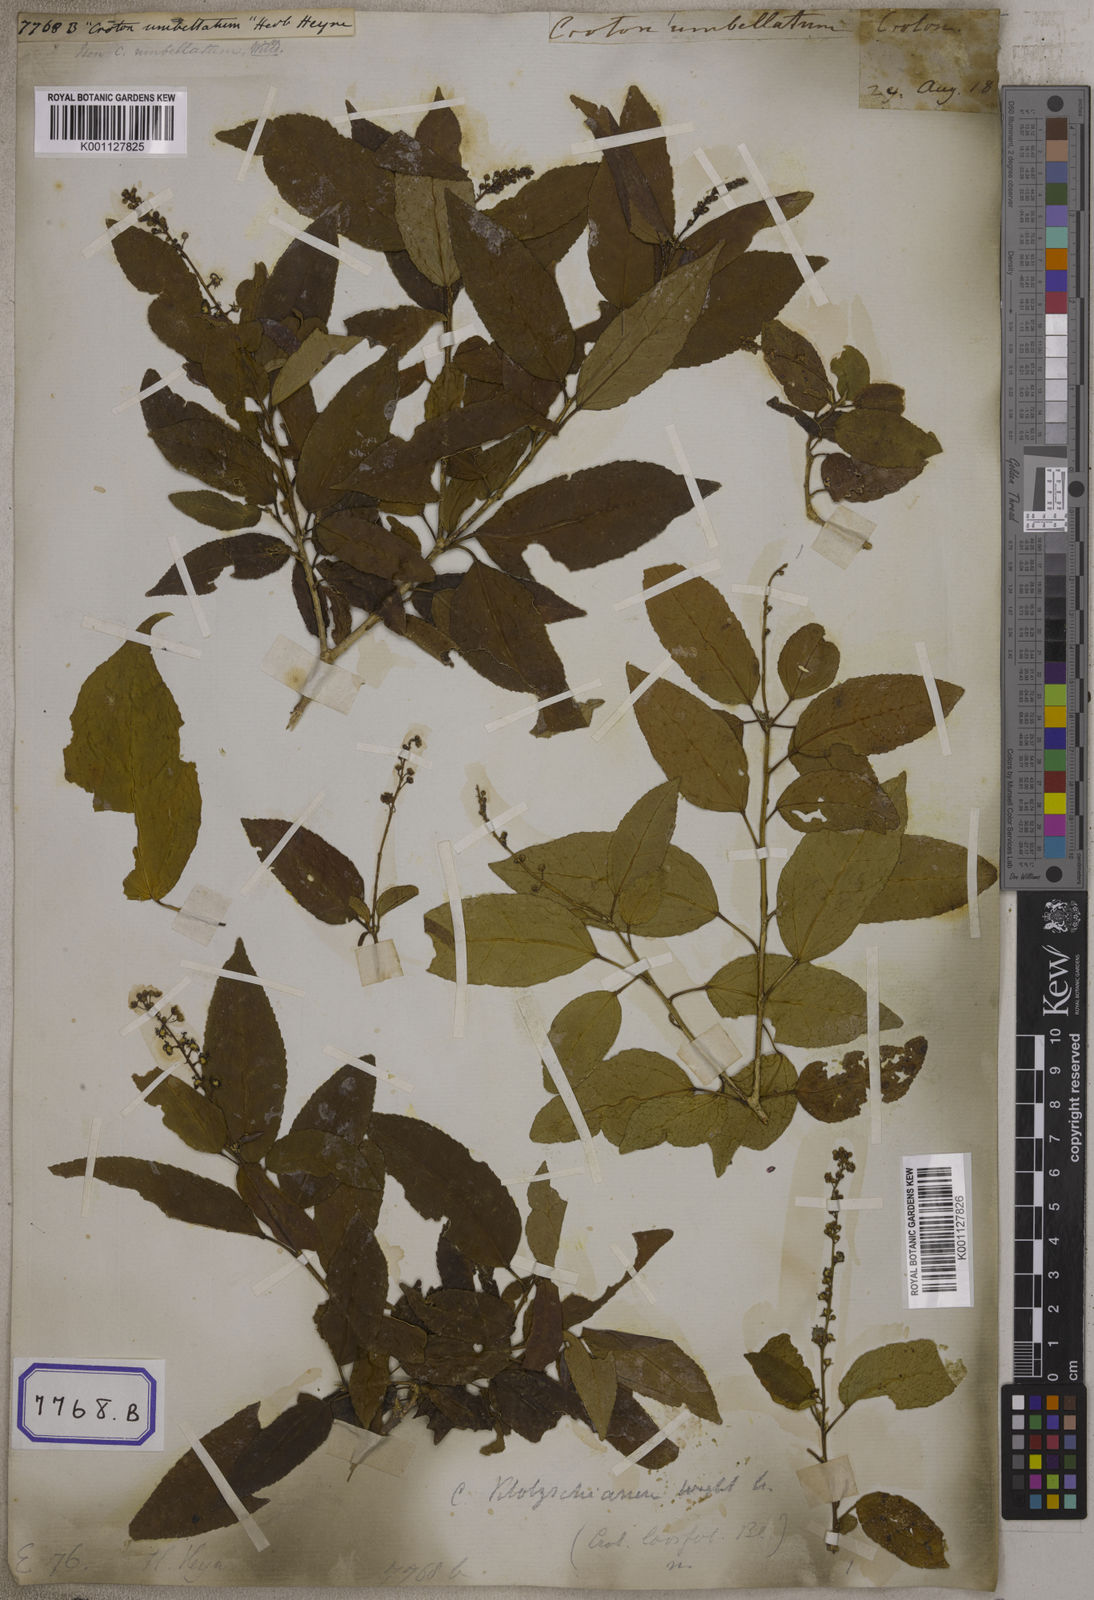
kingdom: Plantae
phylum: Tracheophyta
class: Magnoliopsida
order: Malpighiales
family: Euphorbiaceae
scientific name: Euphorbiaceae
